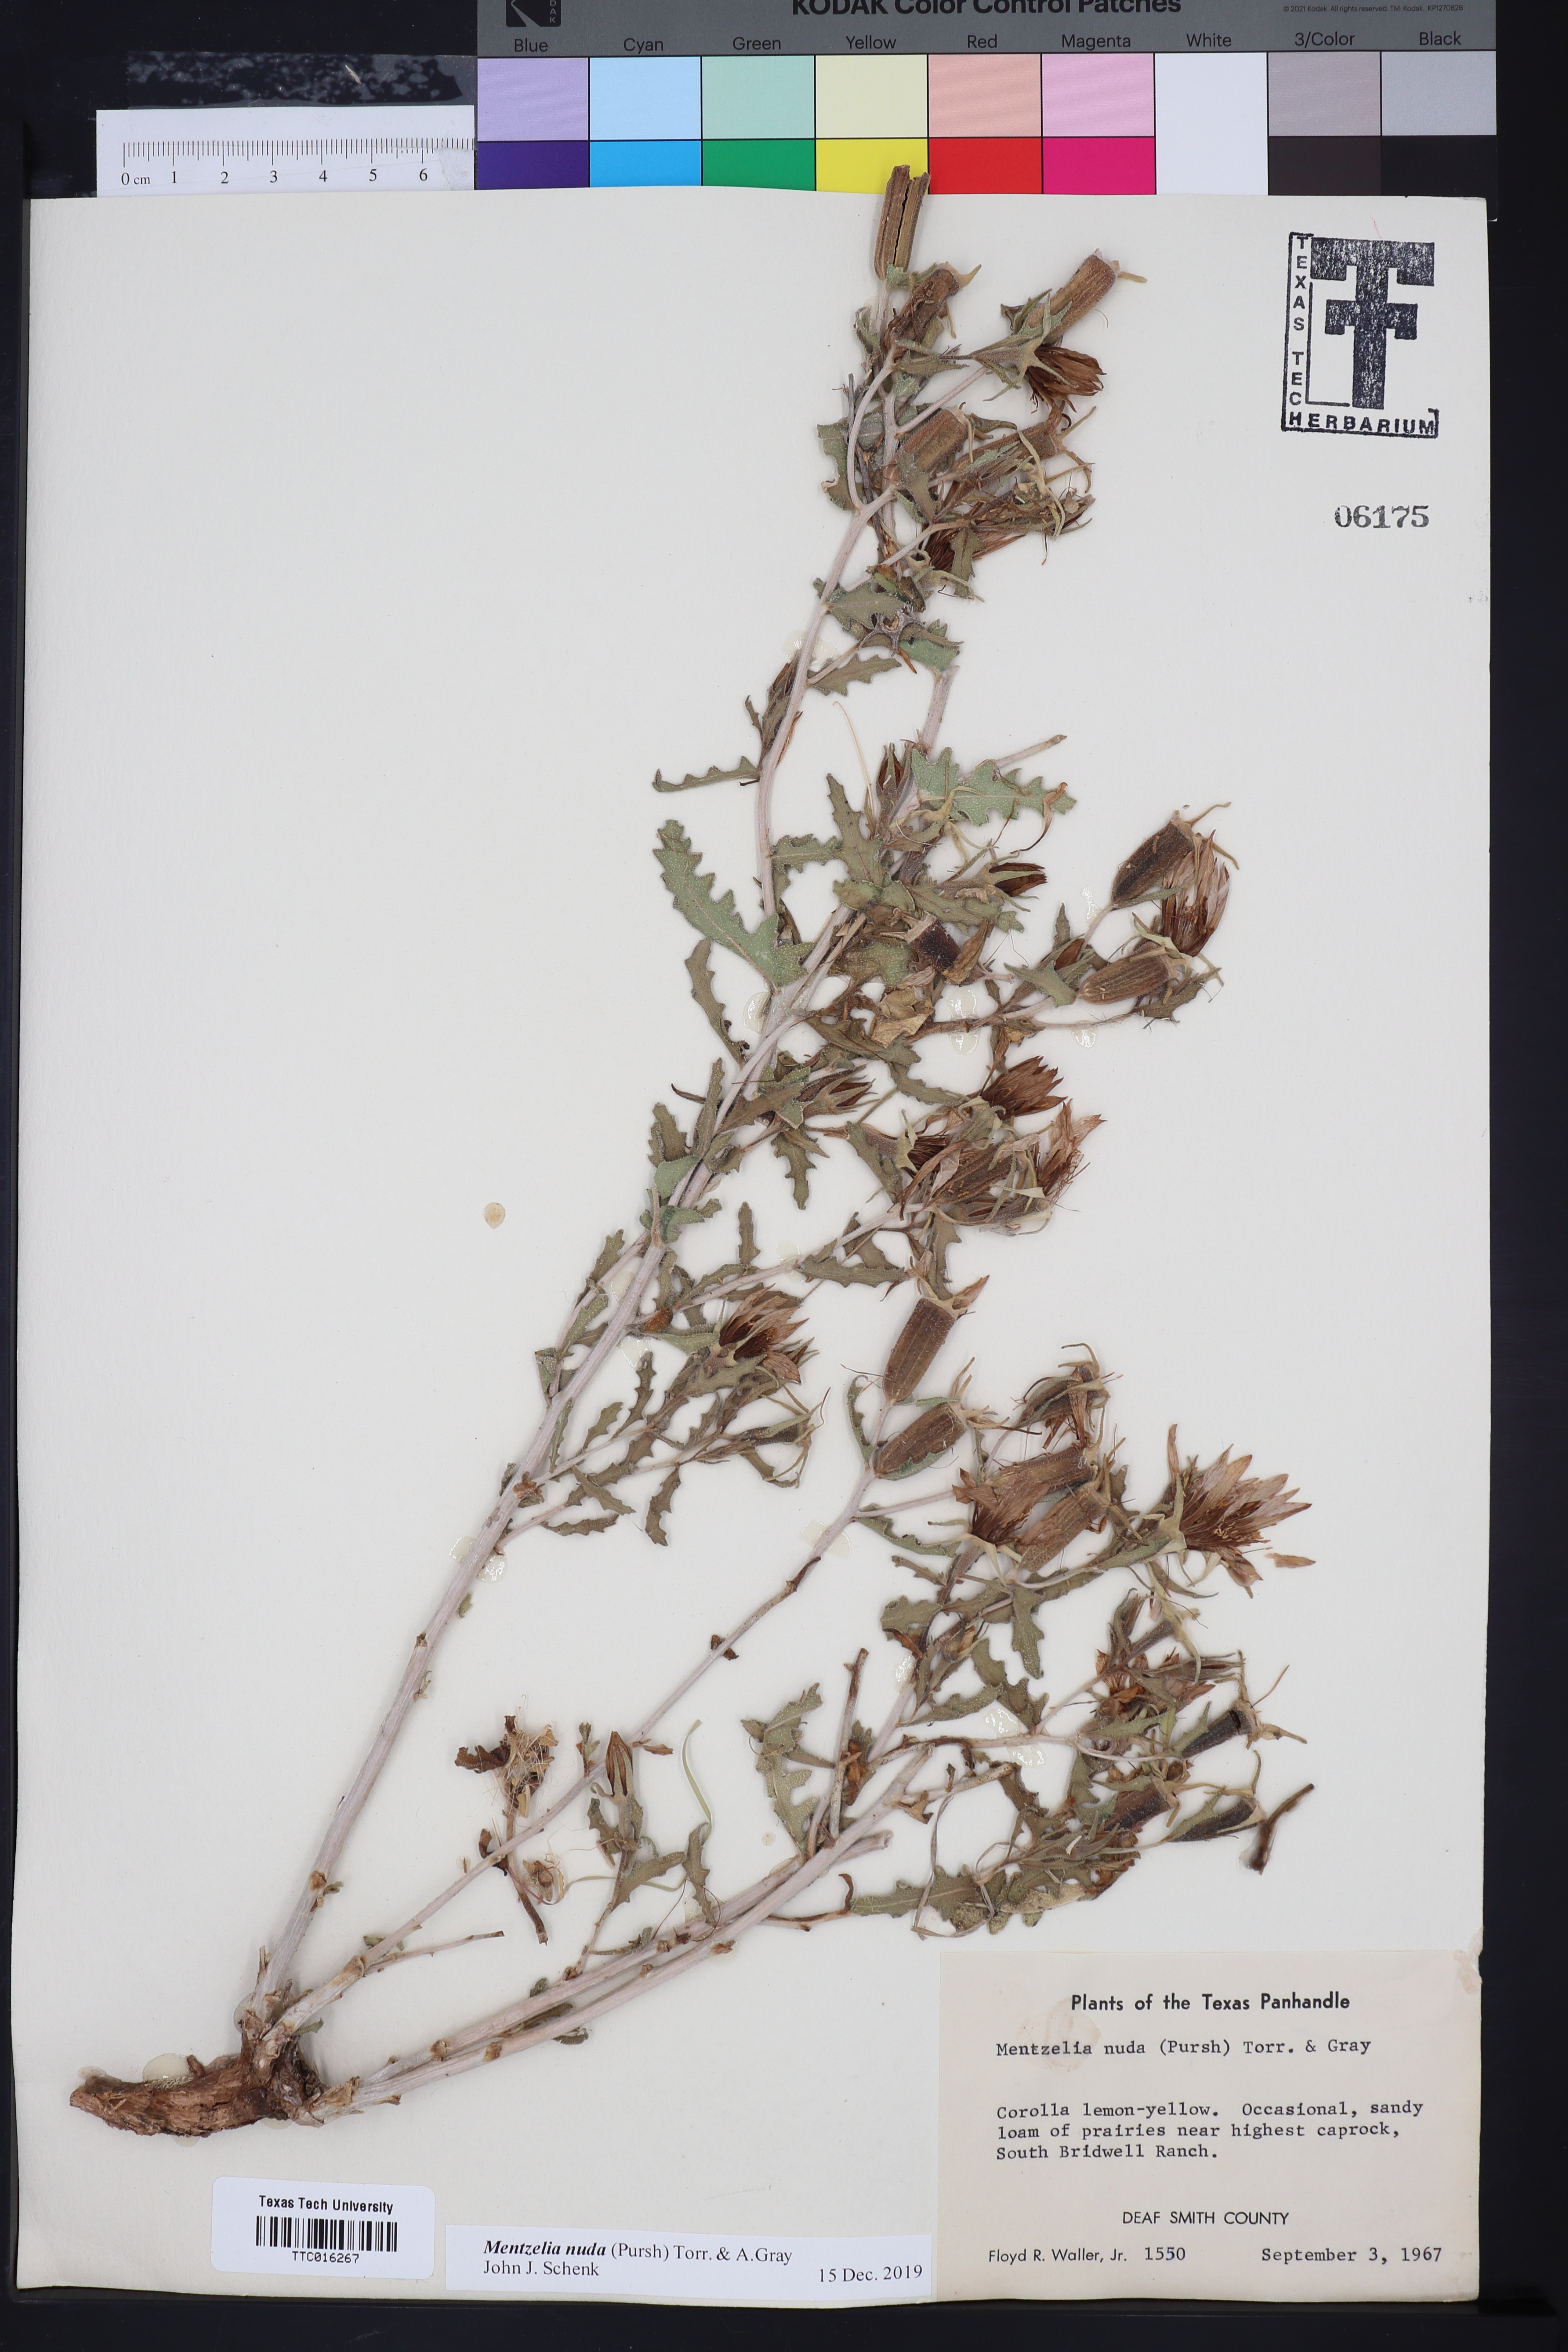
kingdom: Plantae
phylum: Tracheophyta
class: Magnoliopsida
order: Cornales
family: Loasaceae
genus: Mentzelia
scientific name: Mentzelia nuda
